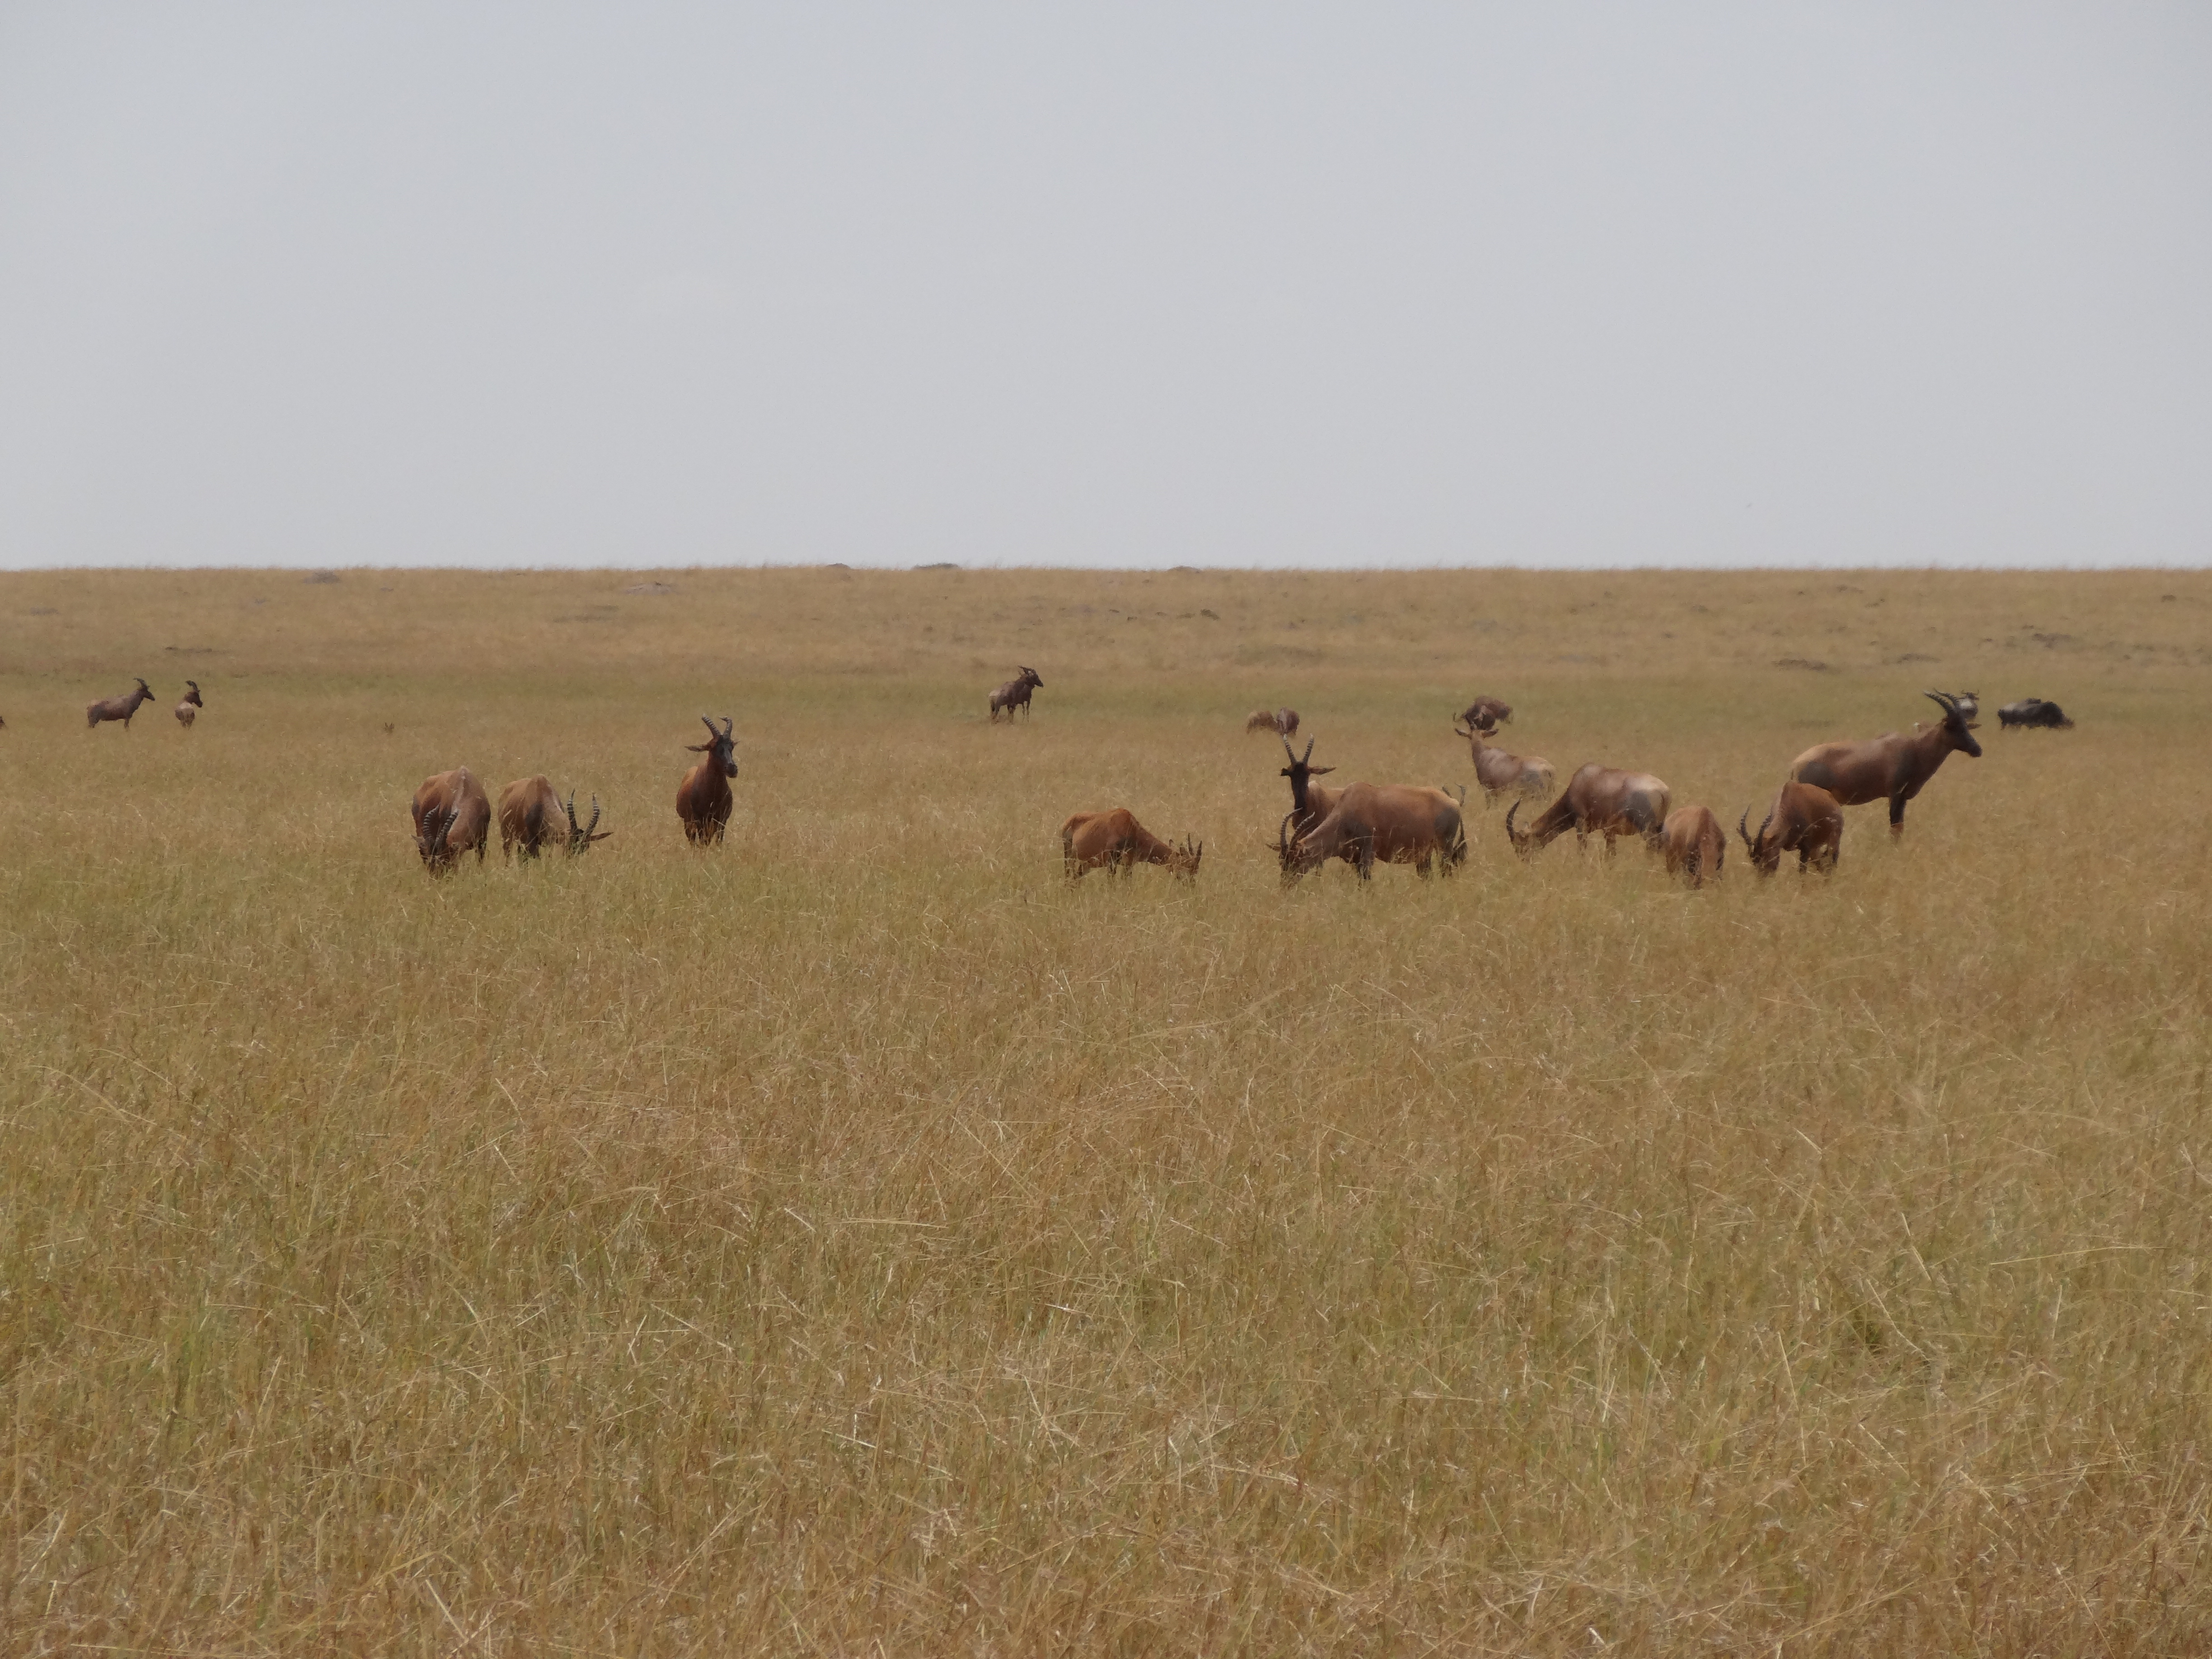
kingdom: Animalia
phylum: Chordata
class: Mammalia
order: Artiodactyla
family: Bovidae
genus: Alcelaphus
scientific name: Alcelaphus cokii
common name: Coke's hartebeest
